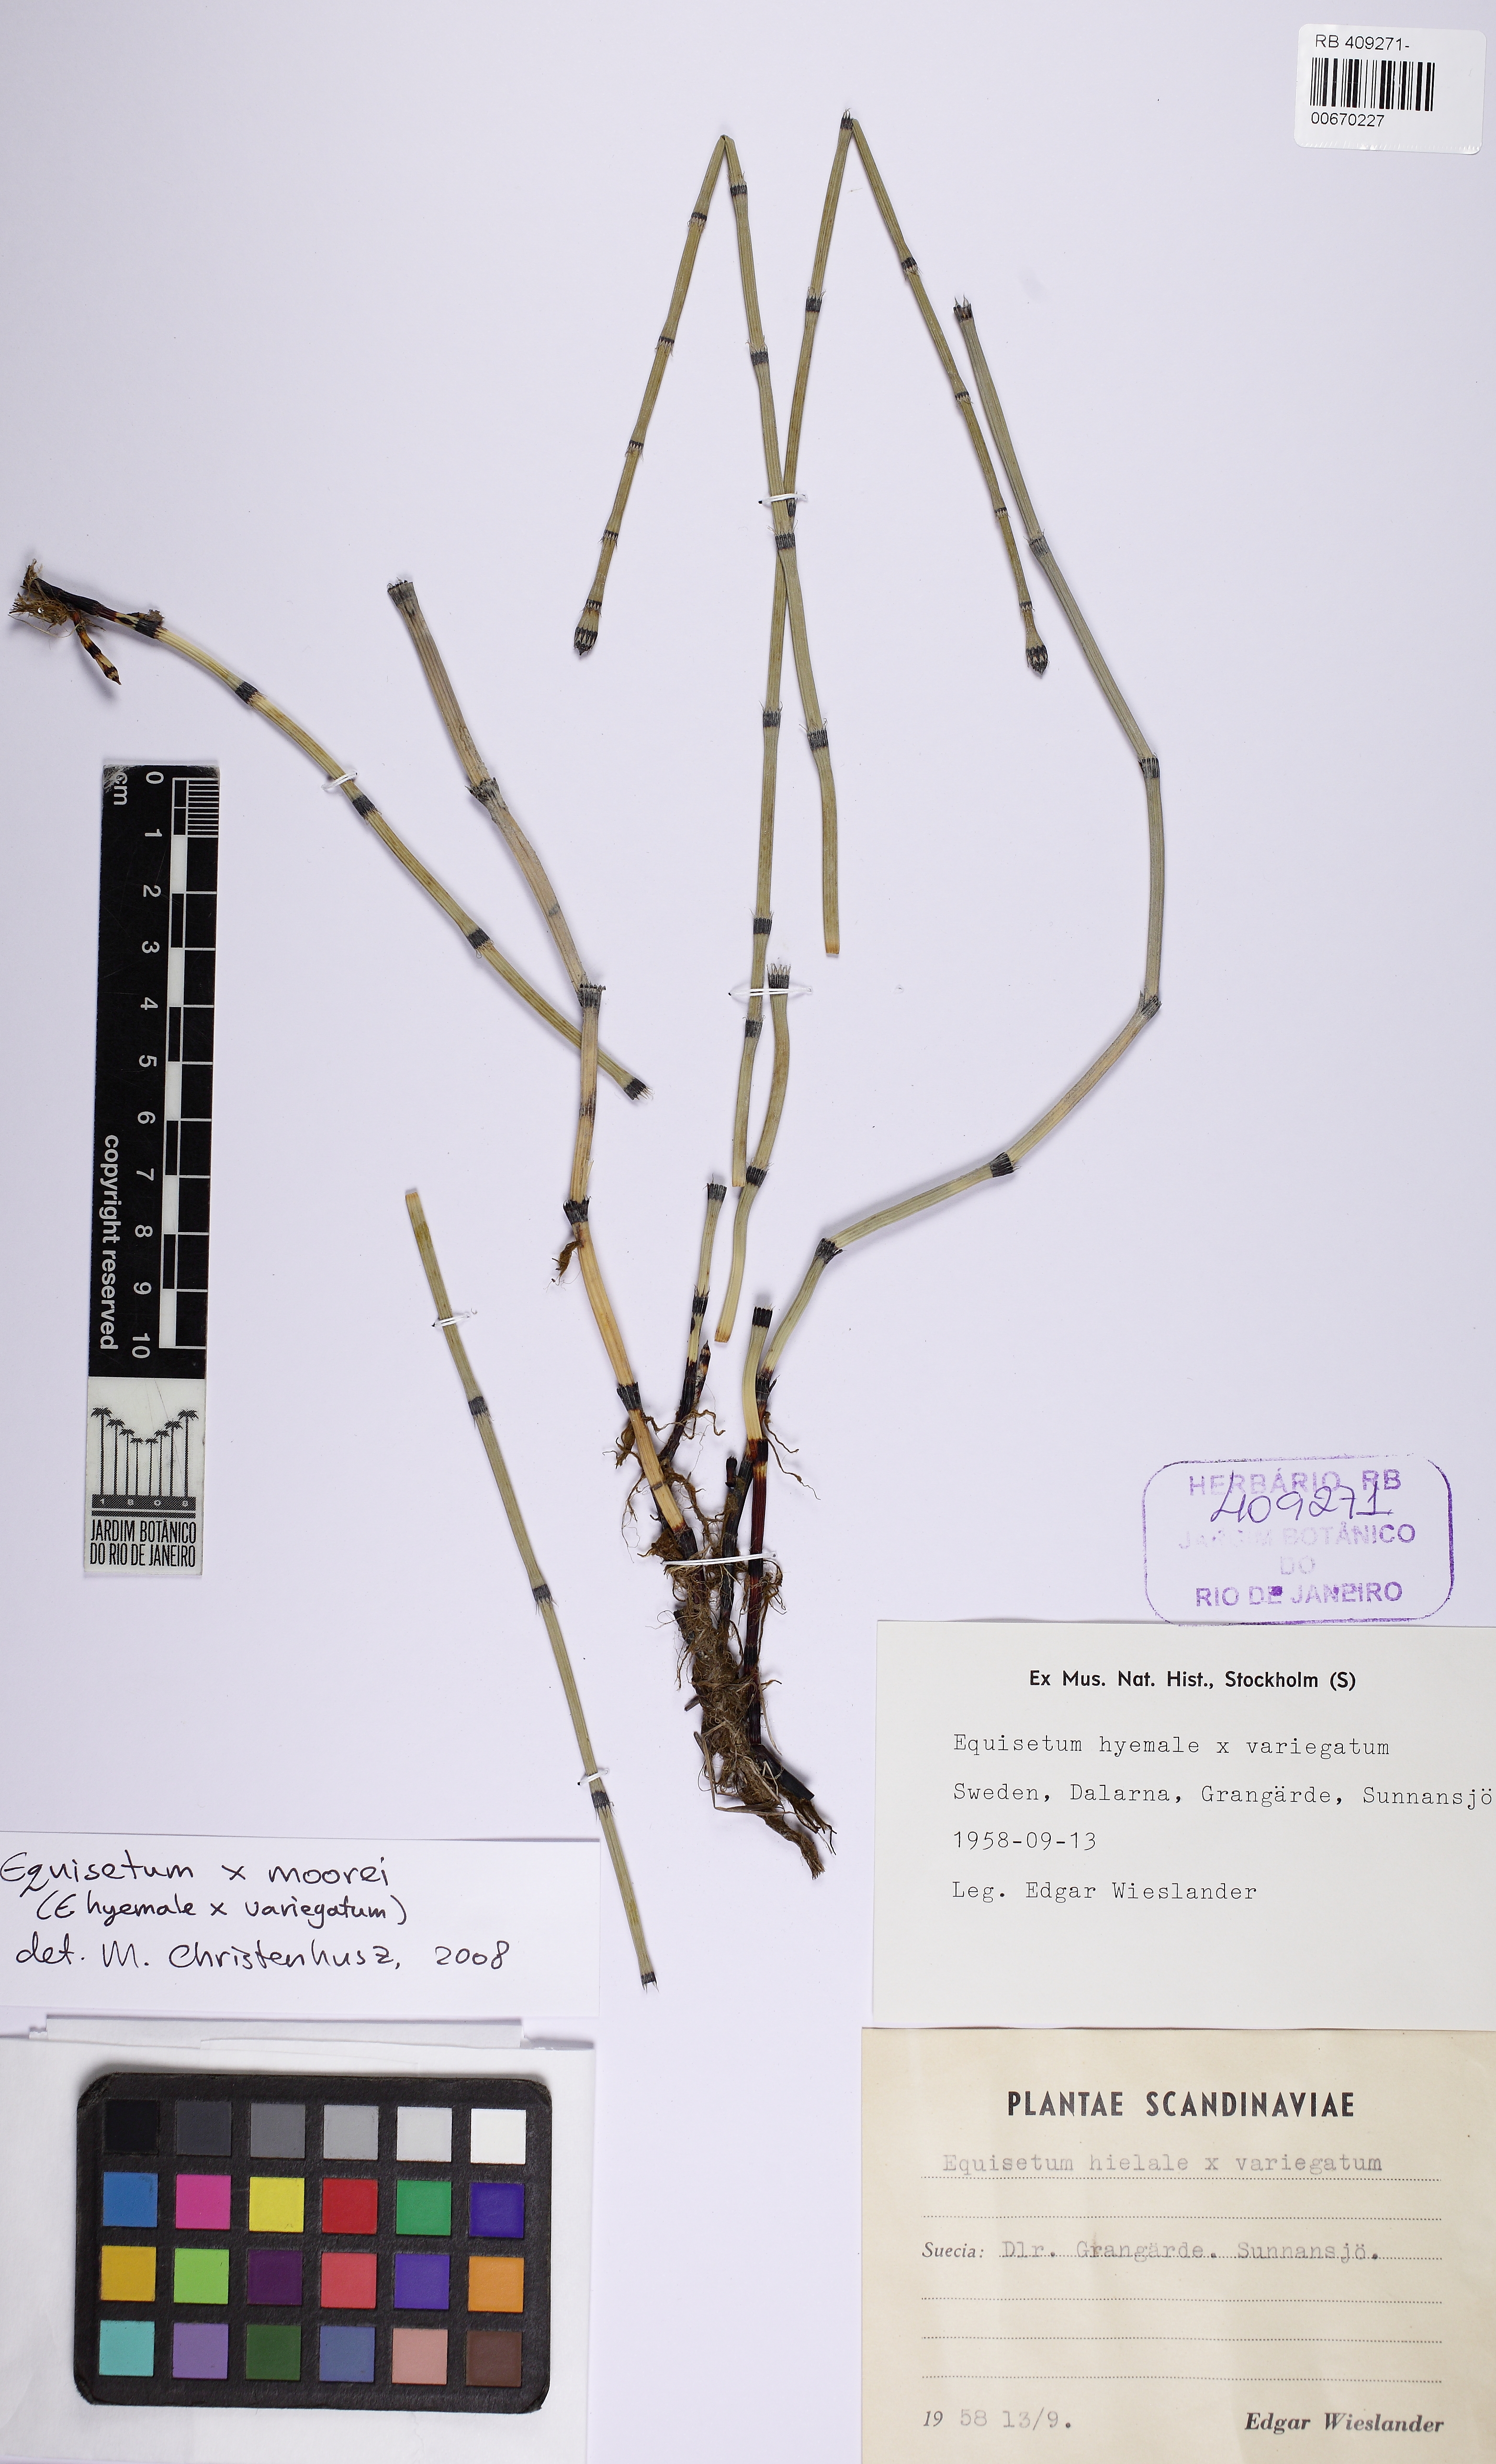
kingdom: Plantae
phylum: Tracheophyta
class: Polypodiopsida
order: Equisetales
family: Equisetaceae
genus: Equisetum
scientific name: Equisetum moorei
